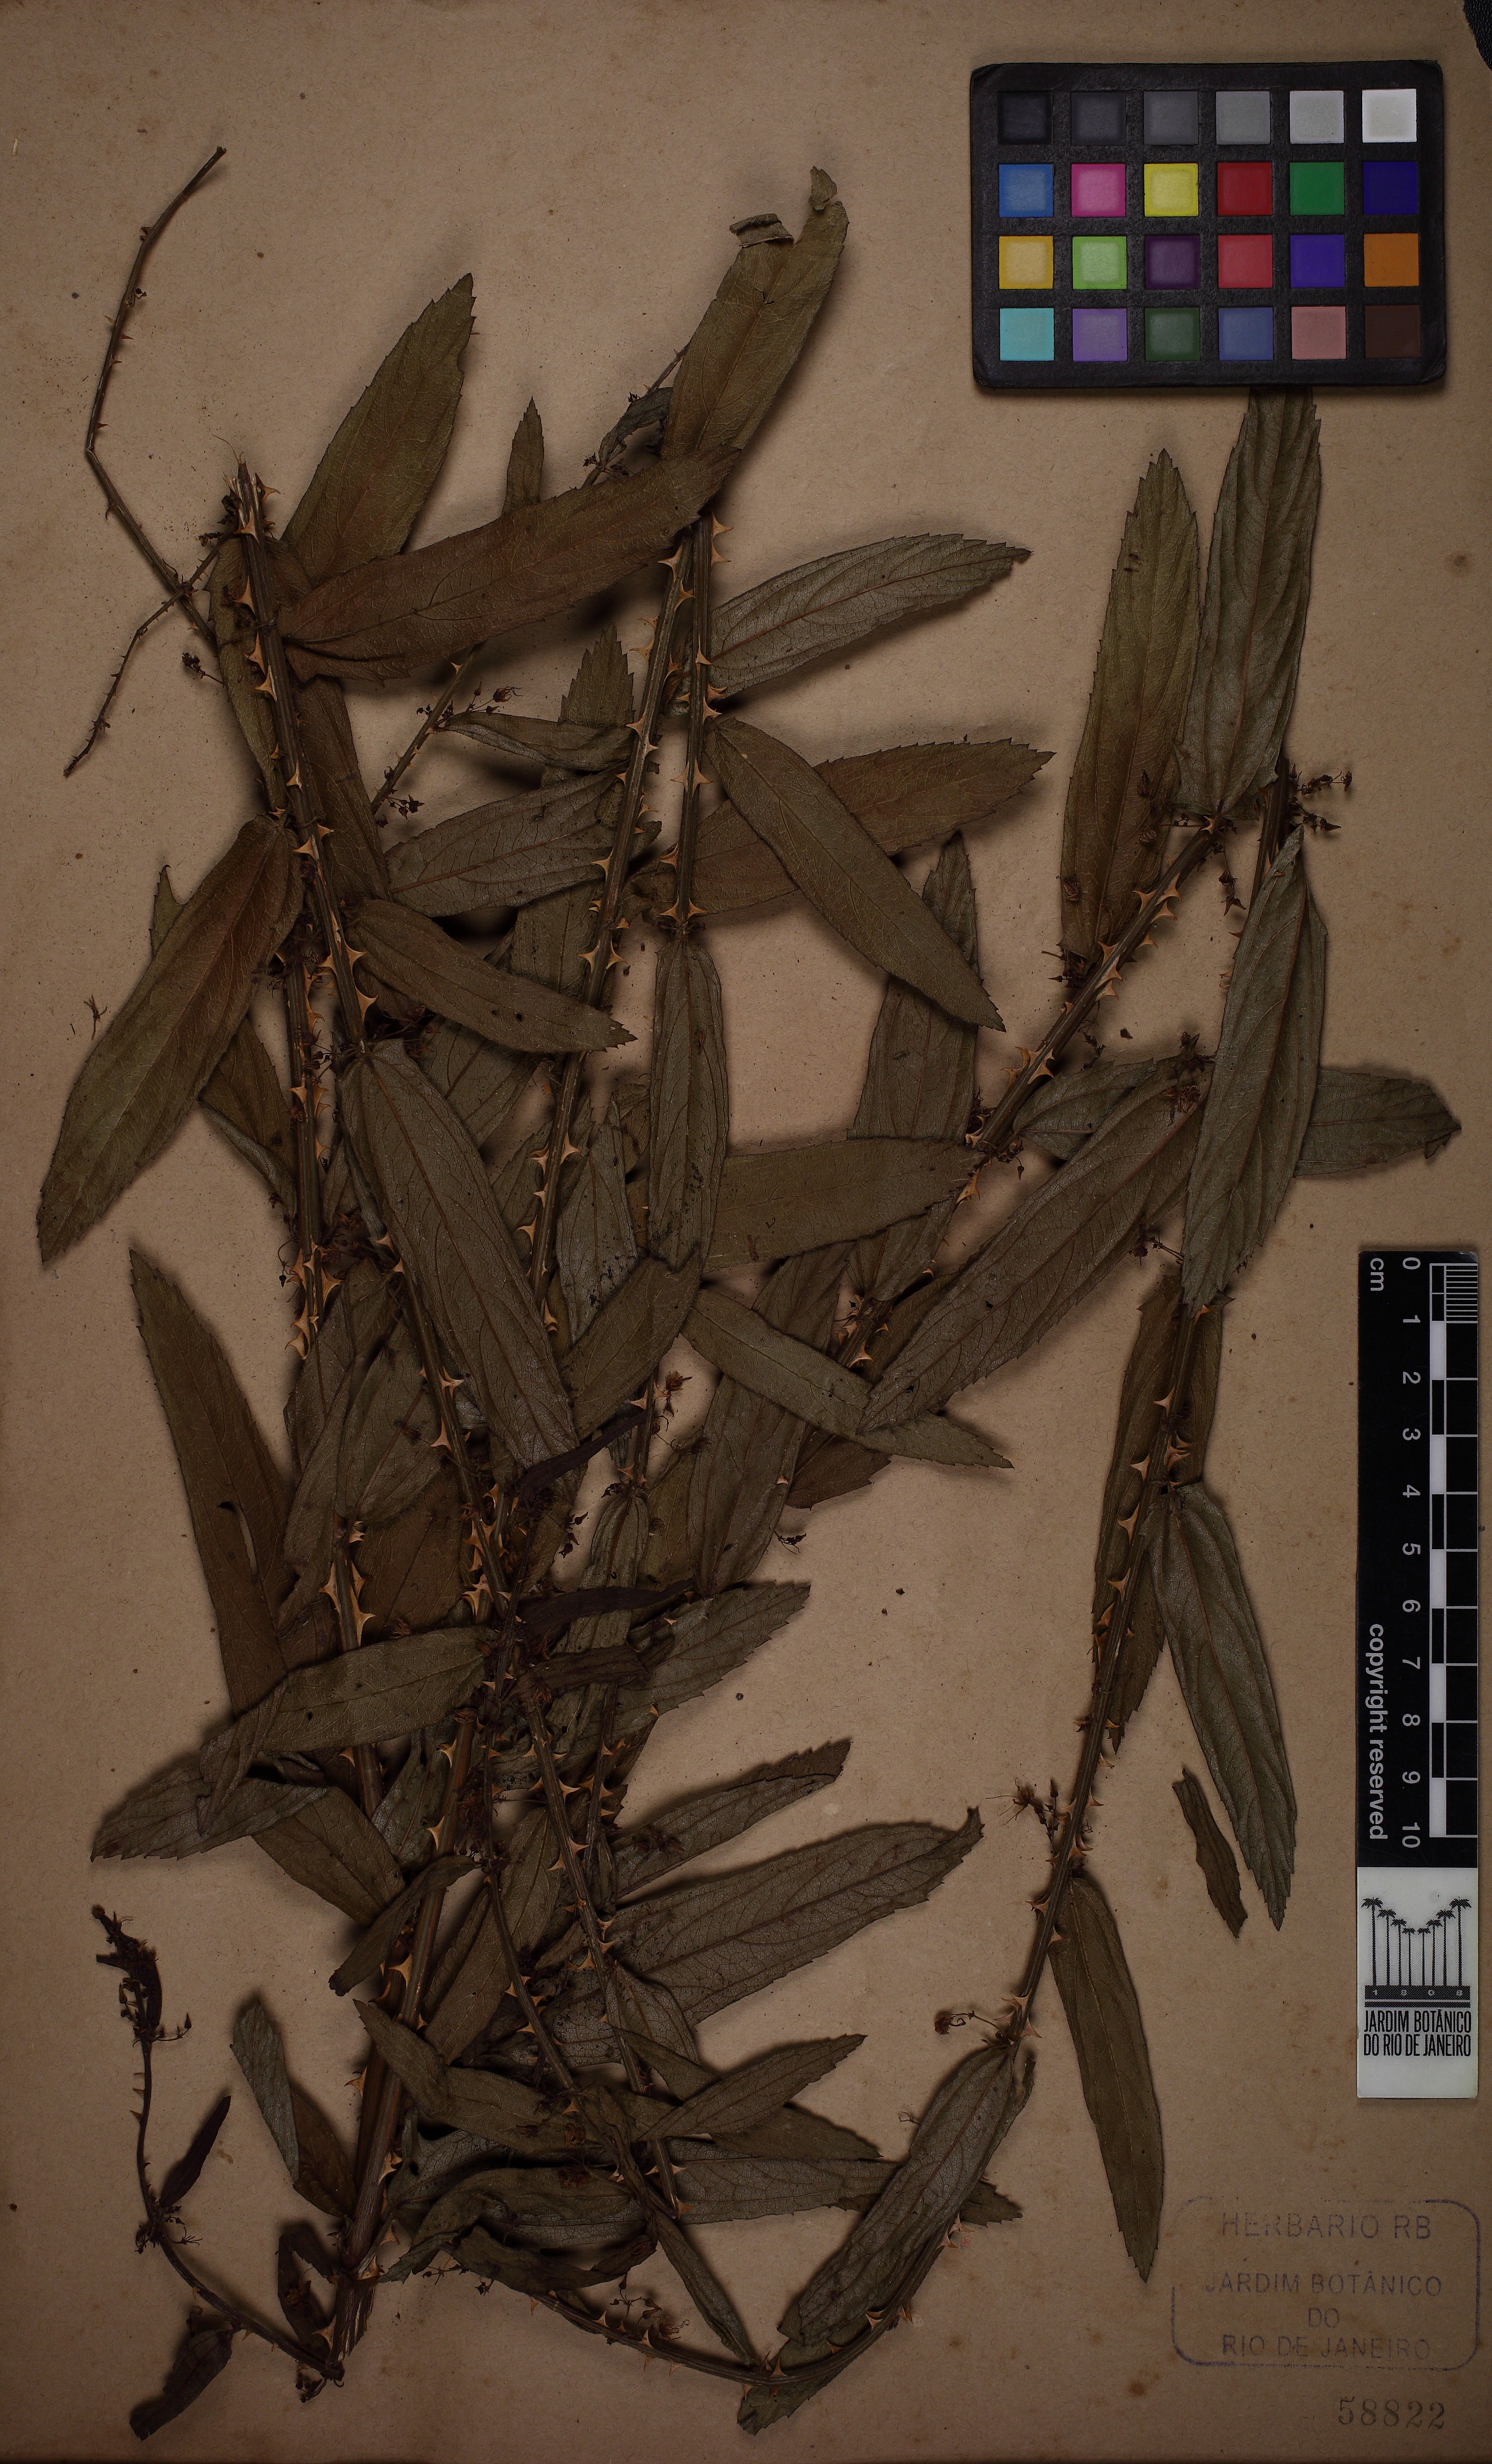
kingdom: Plantae
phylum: Tracheophyta
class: Magnoliopsida
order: Malvales
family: Malvaceae
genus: Byttneria
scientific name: Byttneria scabra
